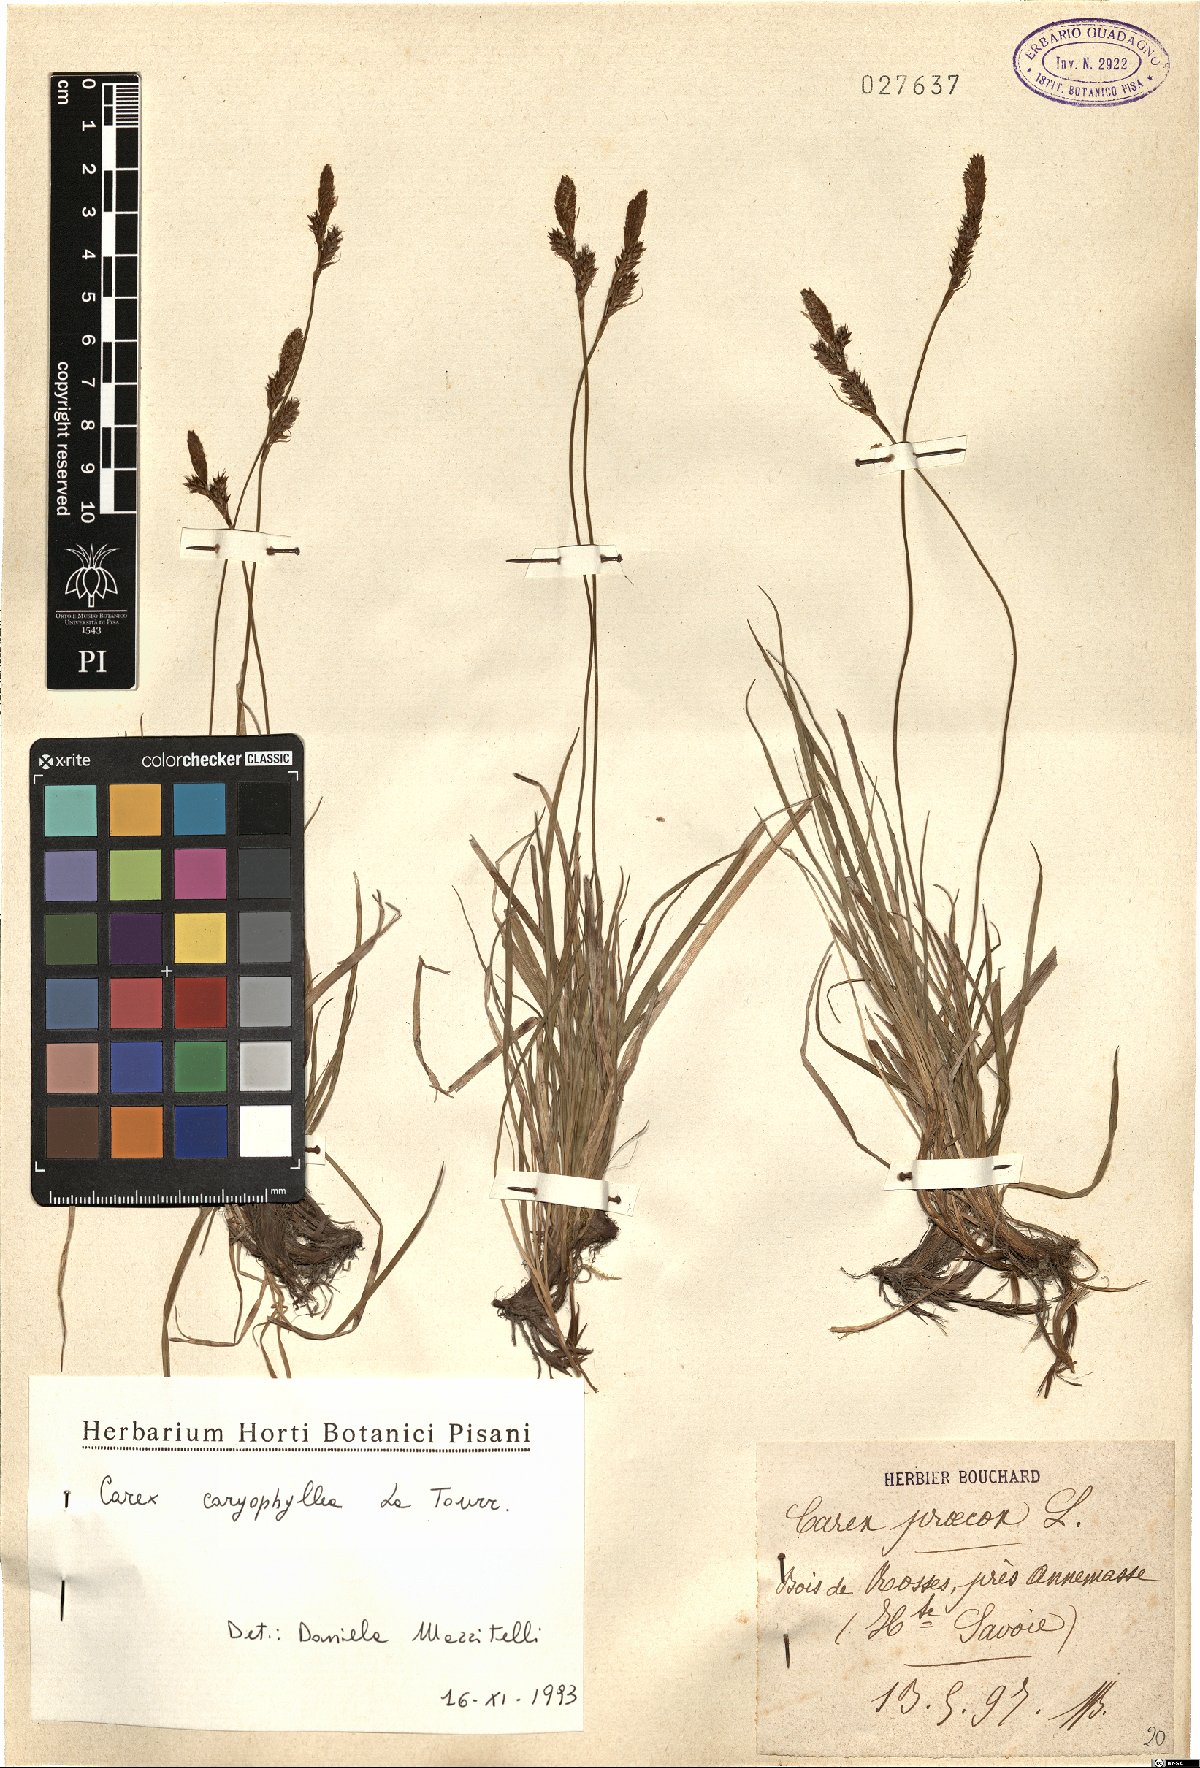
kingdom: Plantae
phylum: Tracheophyta
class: Liliopsida
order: Poales
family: Cyperaceae
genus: Carex
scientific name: Carex caryophyllea
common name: Spring sedge
